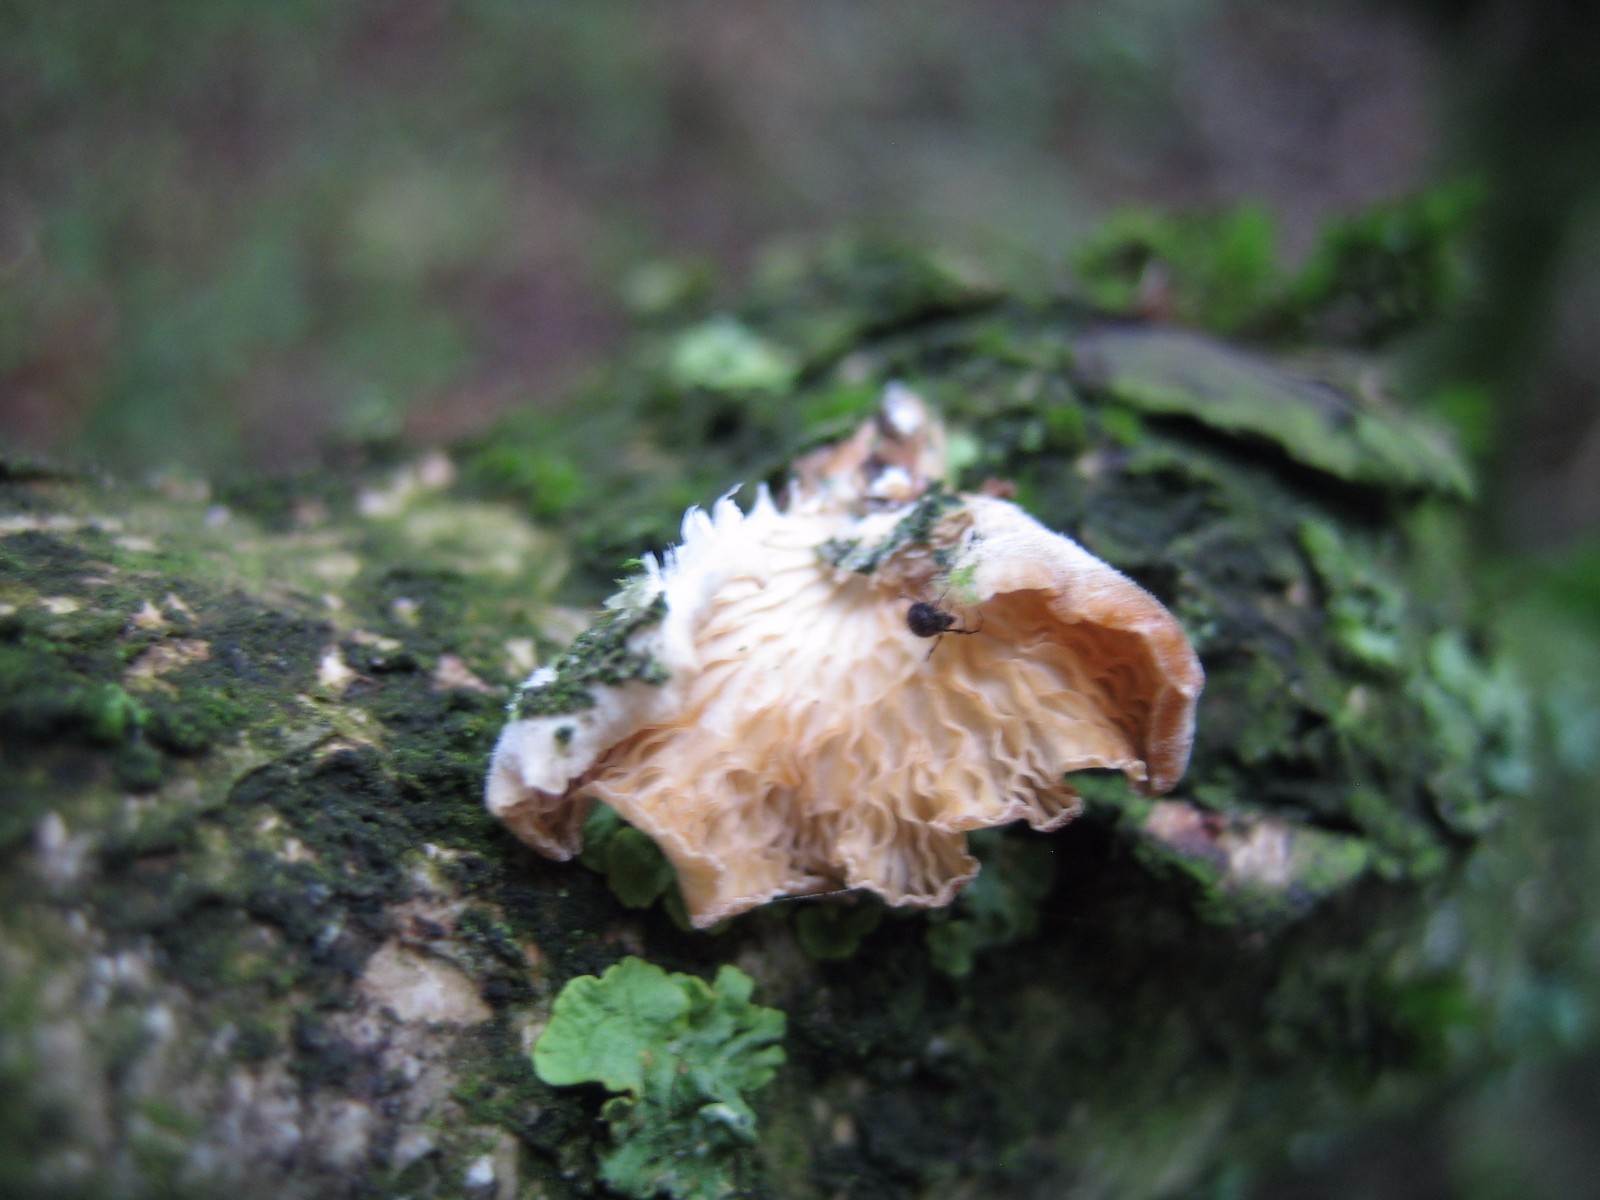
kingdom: Fungi
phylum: Basidiomycota
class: Agaricomycetes
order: Agaricales
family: Pleurotaceae
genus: Hohenbuehelia
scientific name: Hohenbuehelia
